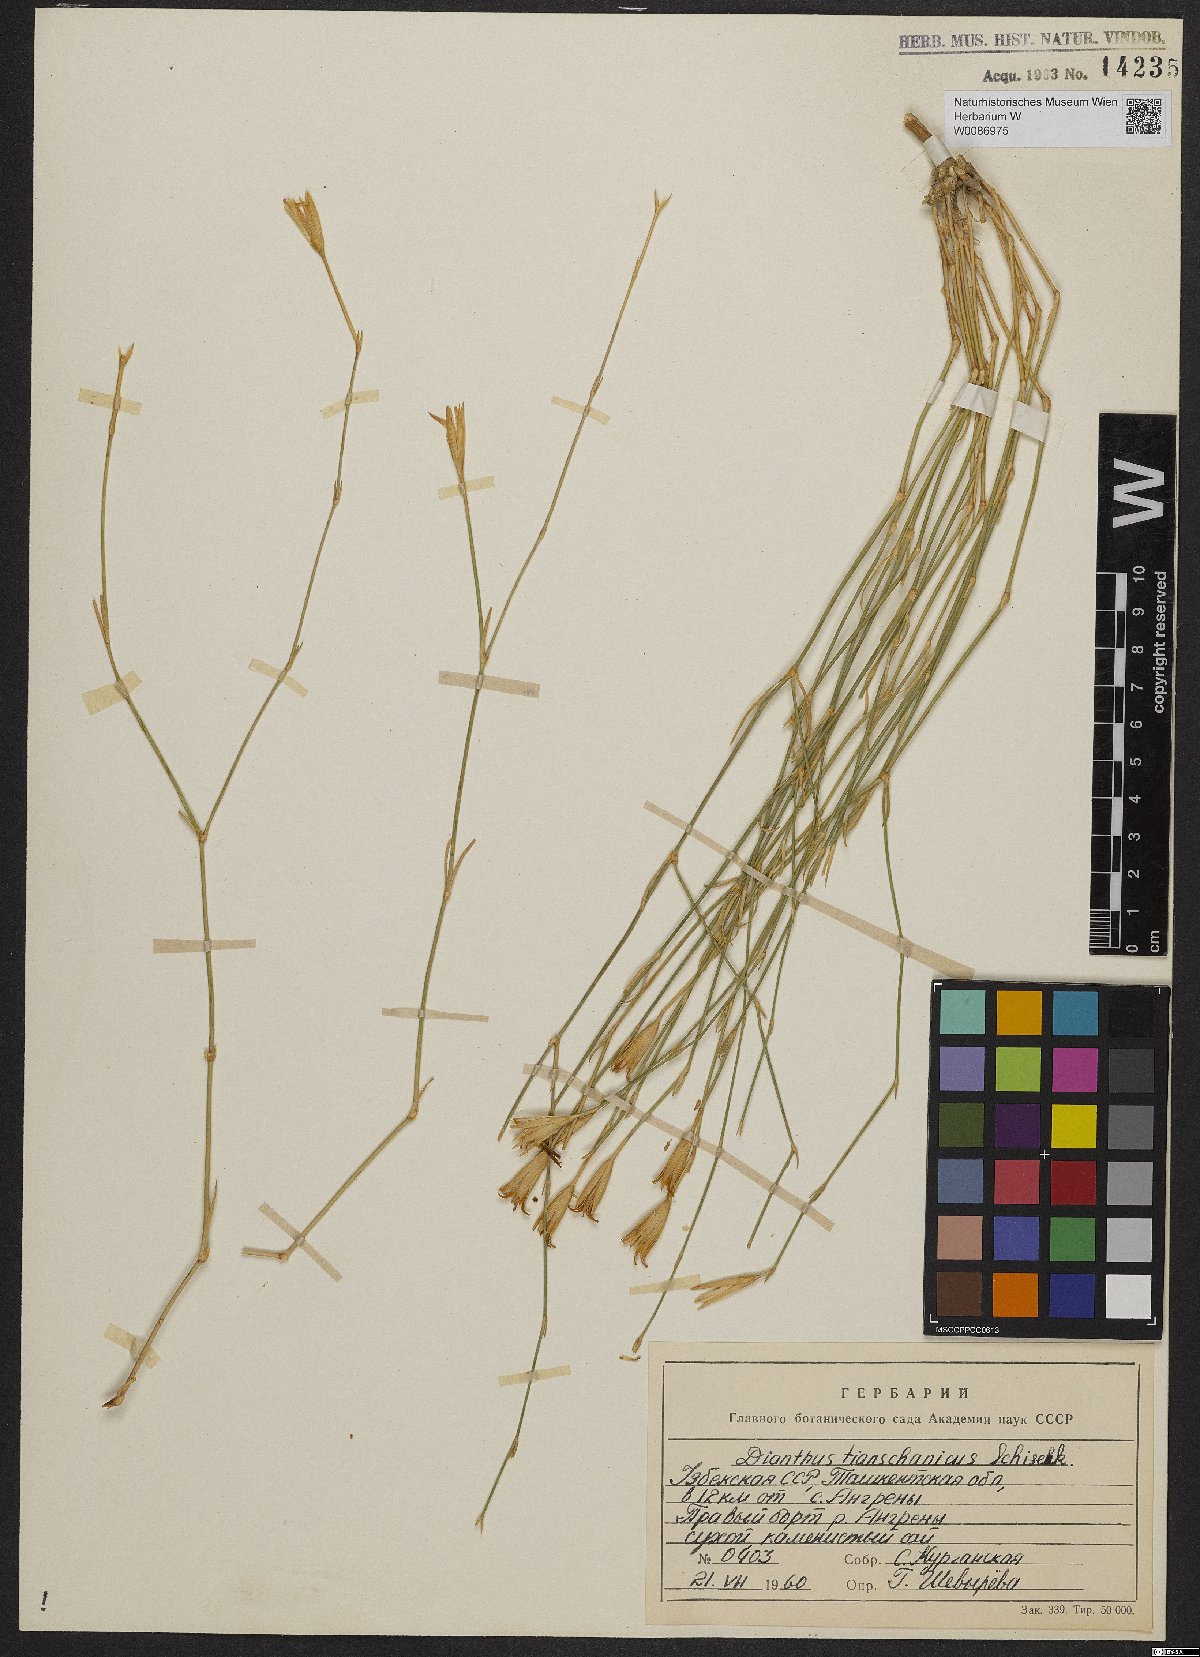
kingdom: Plantae
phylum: Tracheophyta
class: Magnoliopsida
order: Caryophyllales
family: Caryophyllaceae
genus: Dianthus
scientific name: Dianthus kuschakewiczii
